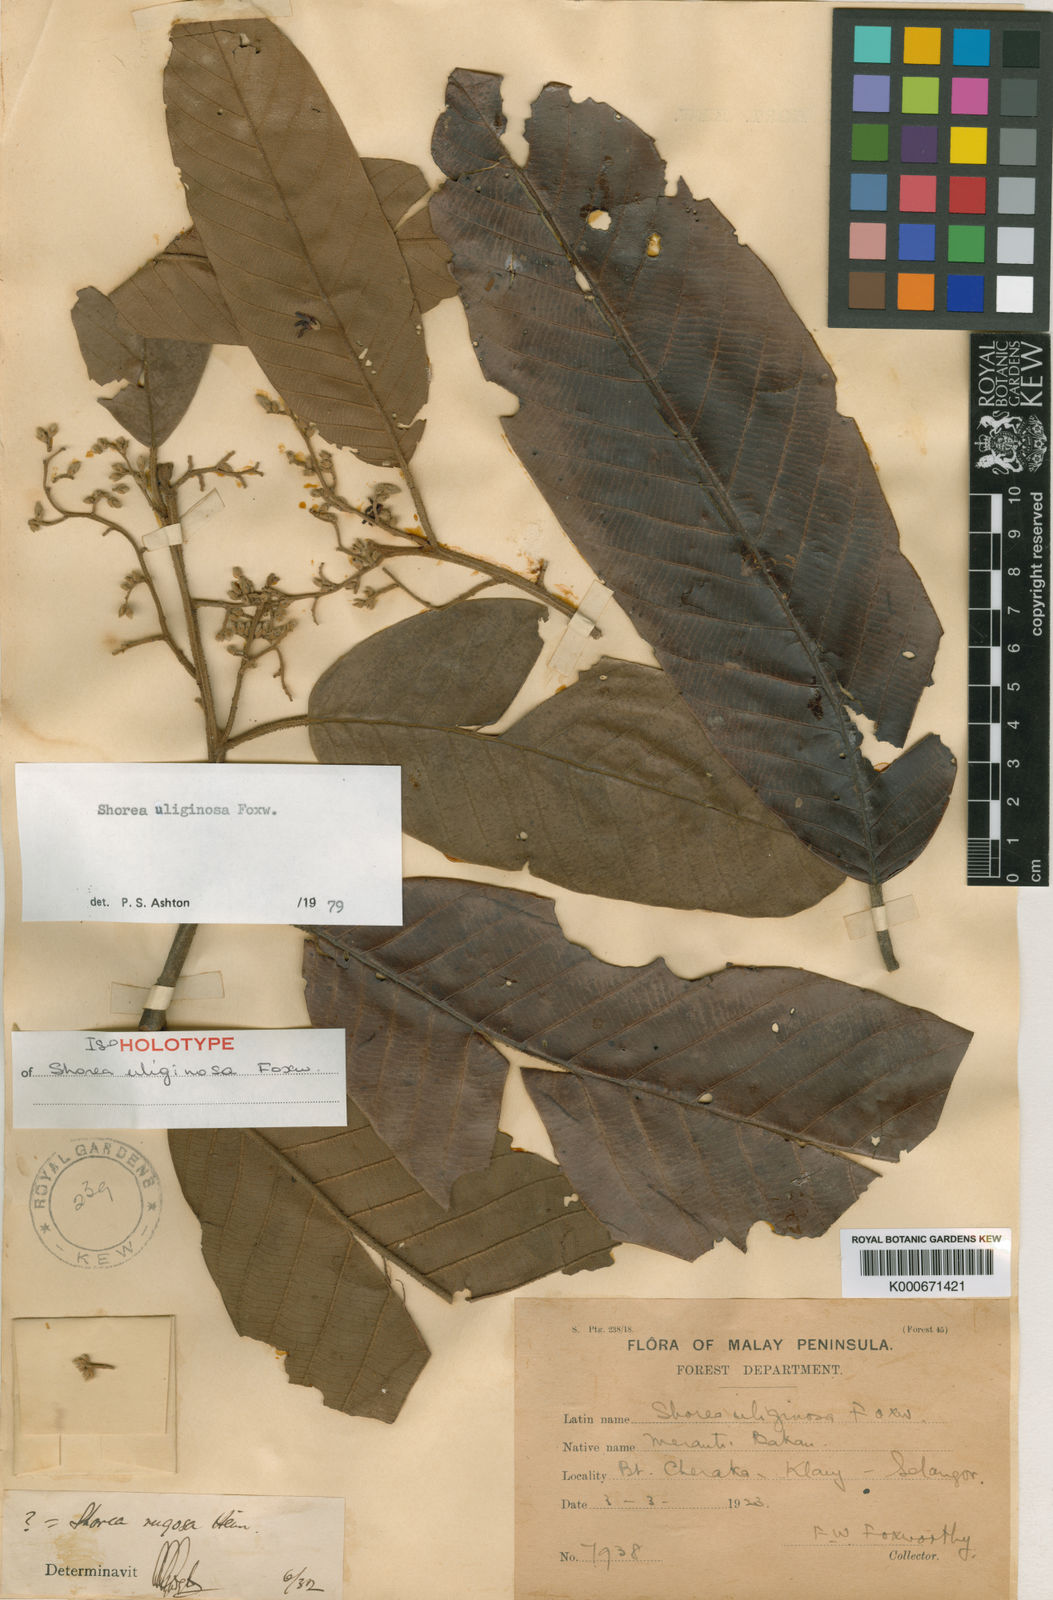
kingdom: Plantae
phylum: Tracheophyta
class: Magnoliopsida
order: Malvales
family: Dipterocarpaceae
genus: Shorea
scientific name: Shorea uliginosa
